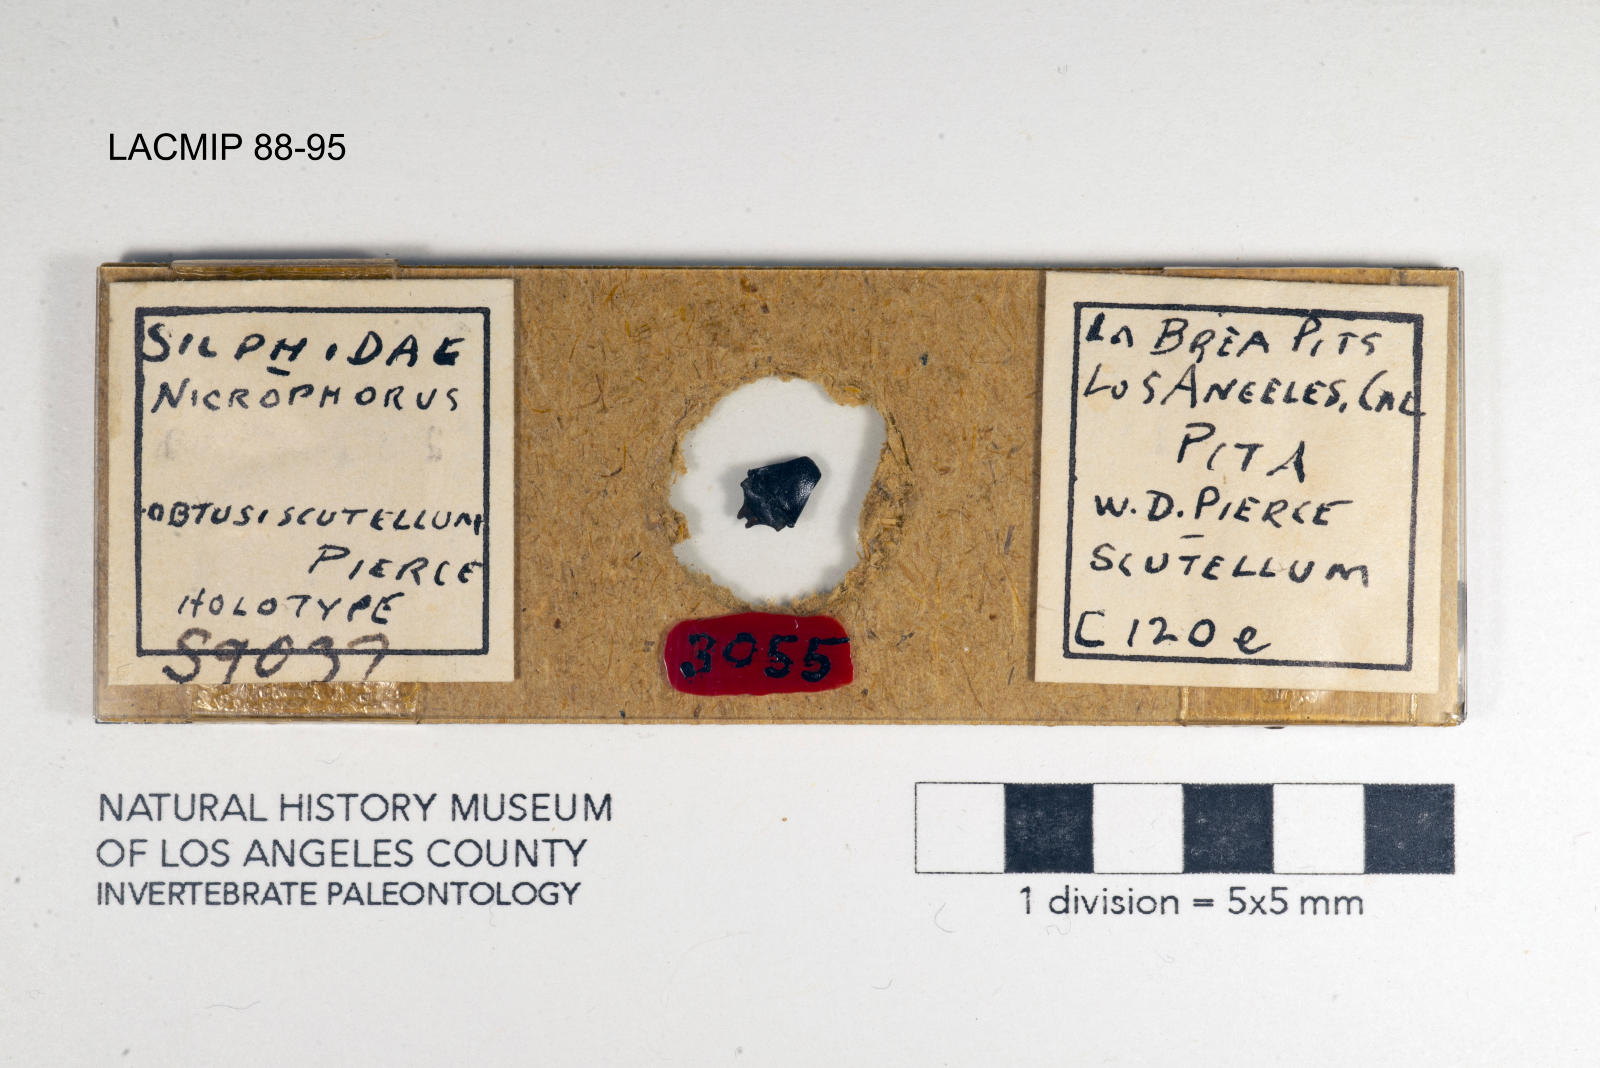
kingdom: Animalia
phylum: Arthropoda
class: Insecta
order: Coleoptera
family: Staphylinidae
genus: Nicrophorus
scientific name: Nicrophorus nigrita
